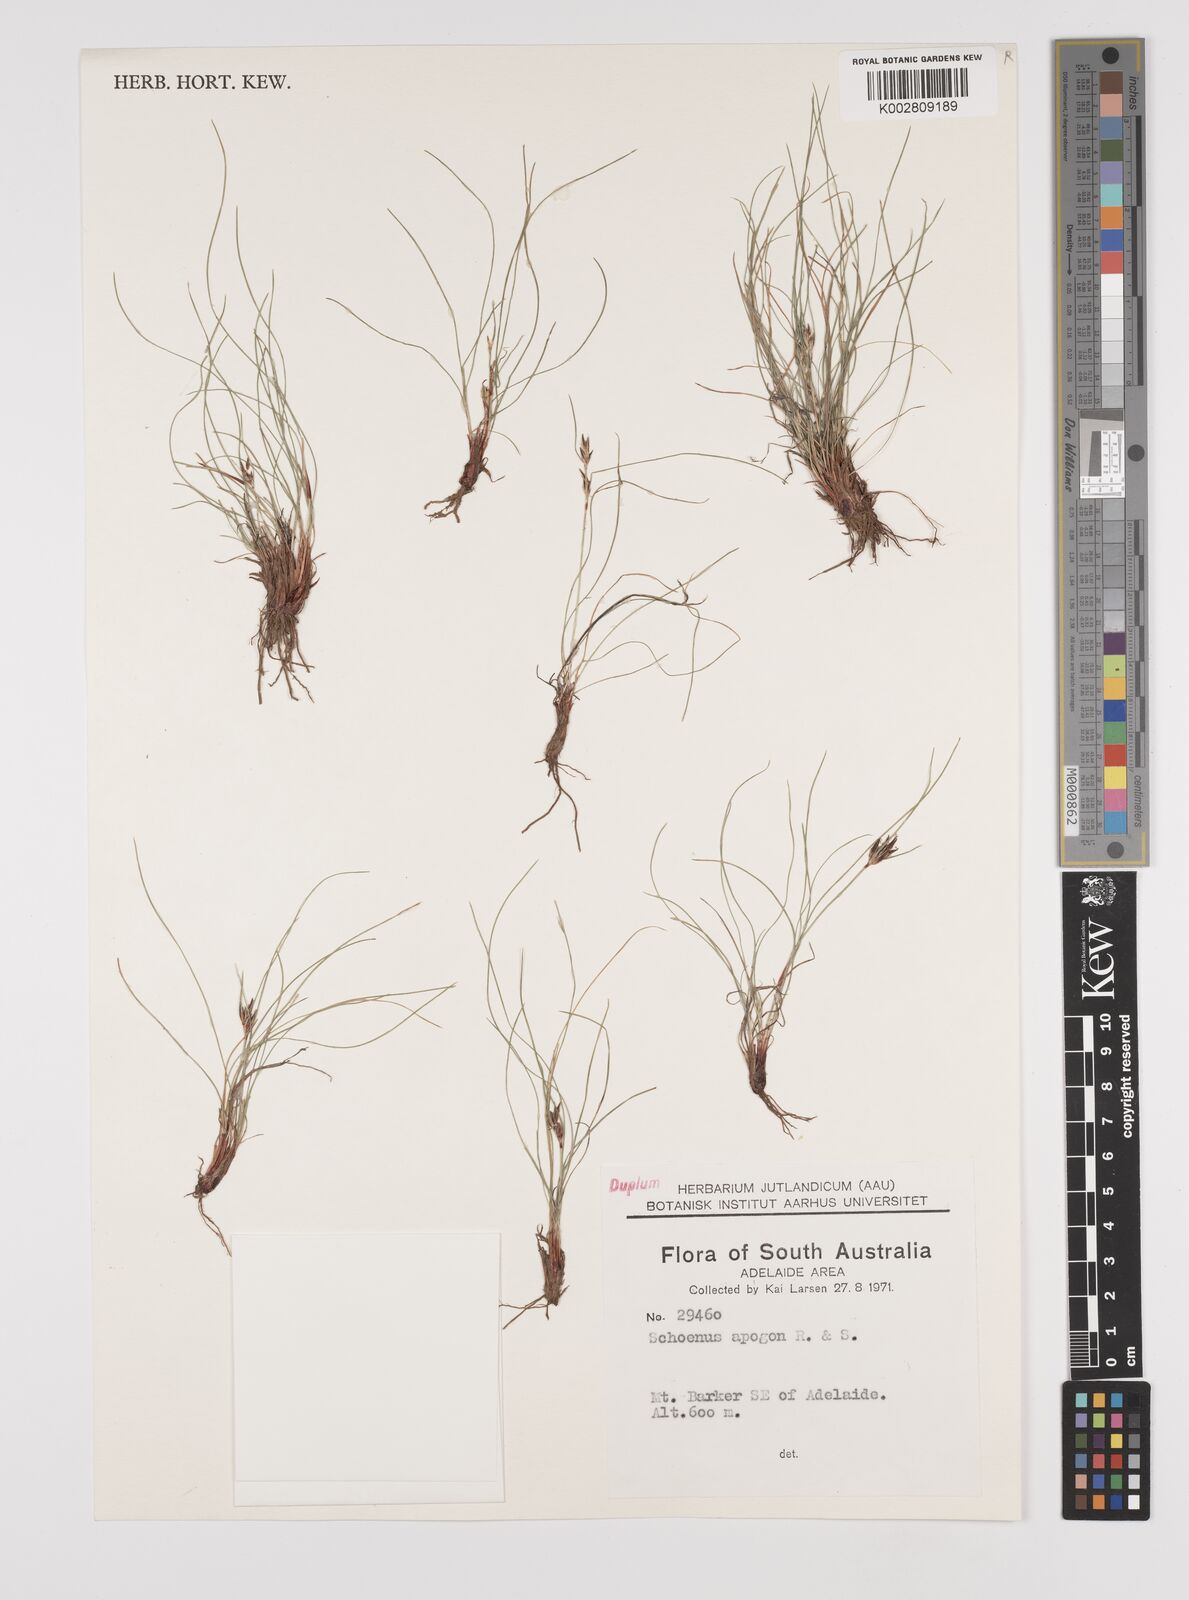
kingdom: Plantae
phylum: Tracheophyta
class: Liliopsida
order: Poales
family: Cyperaceae
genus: Schoenus
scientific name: Schoenus apogon
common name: Smooth bogrush
